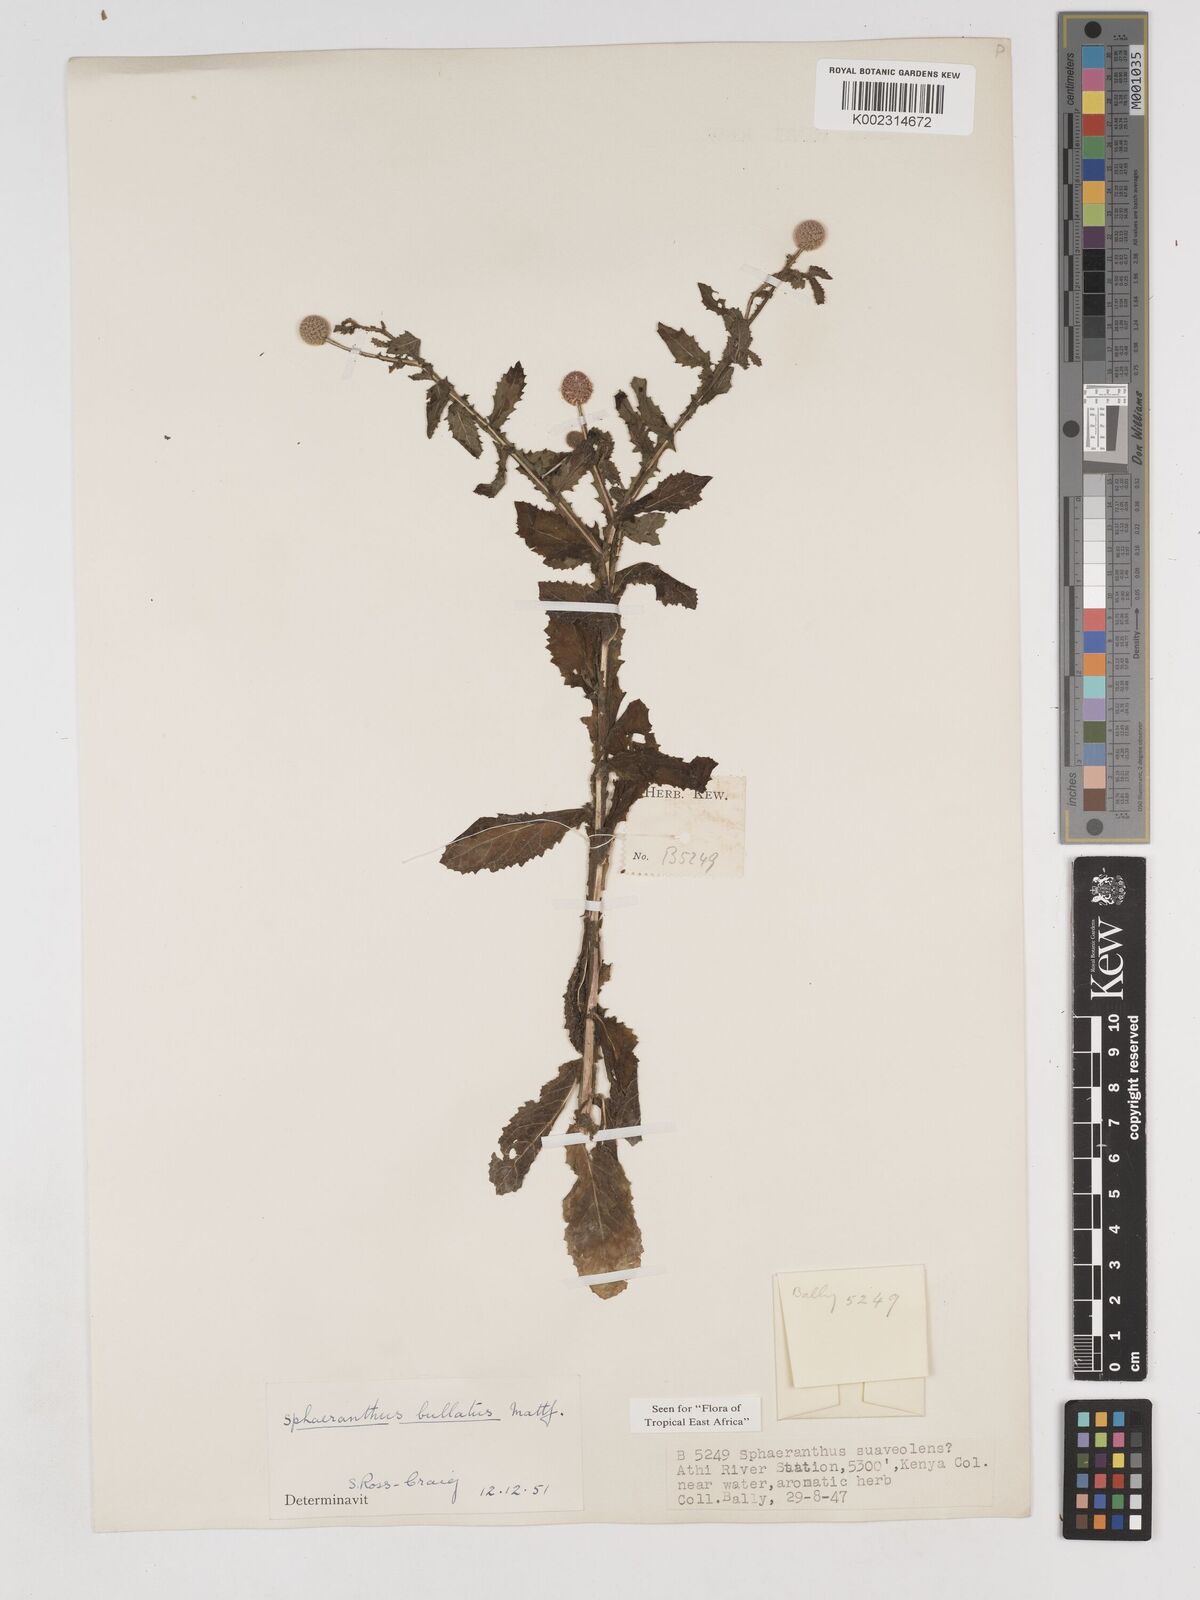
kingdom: Plantae
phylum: Tracheophyta
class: Magnoliopsida
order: Asterales
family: Asteraceae
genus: Sphaeranthus
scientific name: Sphaeranthus bullatus
